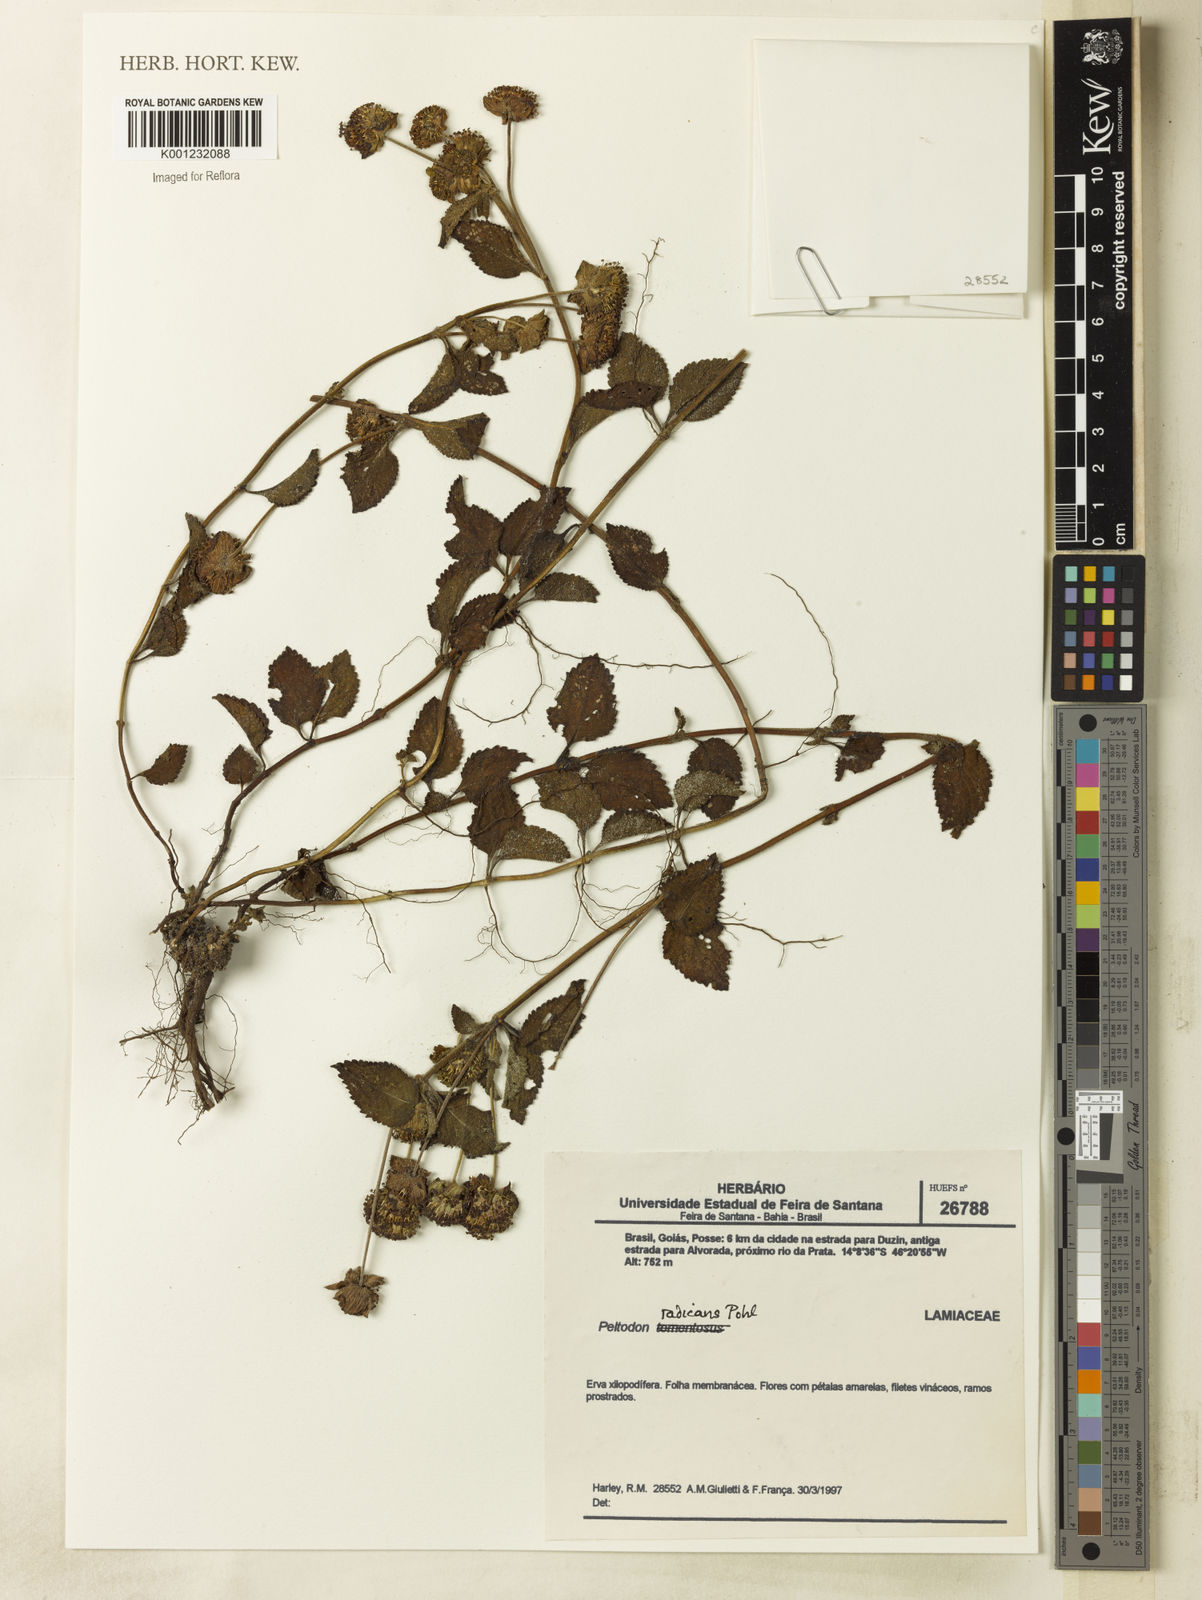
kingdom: Plantae
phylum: Tracheophyta
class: Magnoliopsida
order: Lamiales
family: Lamiaceae
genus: Hyptis
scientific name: Hyptis radicans
